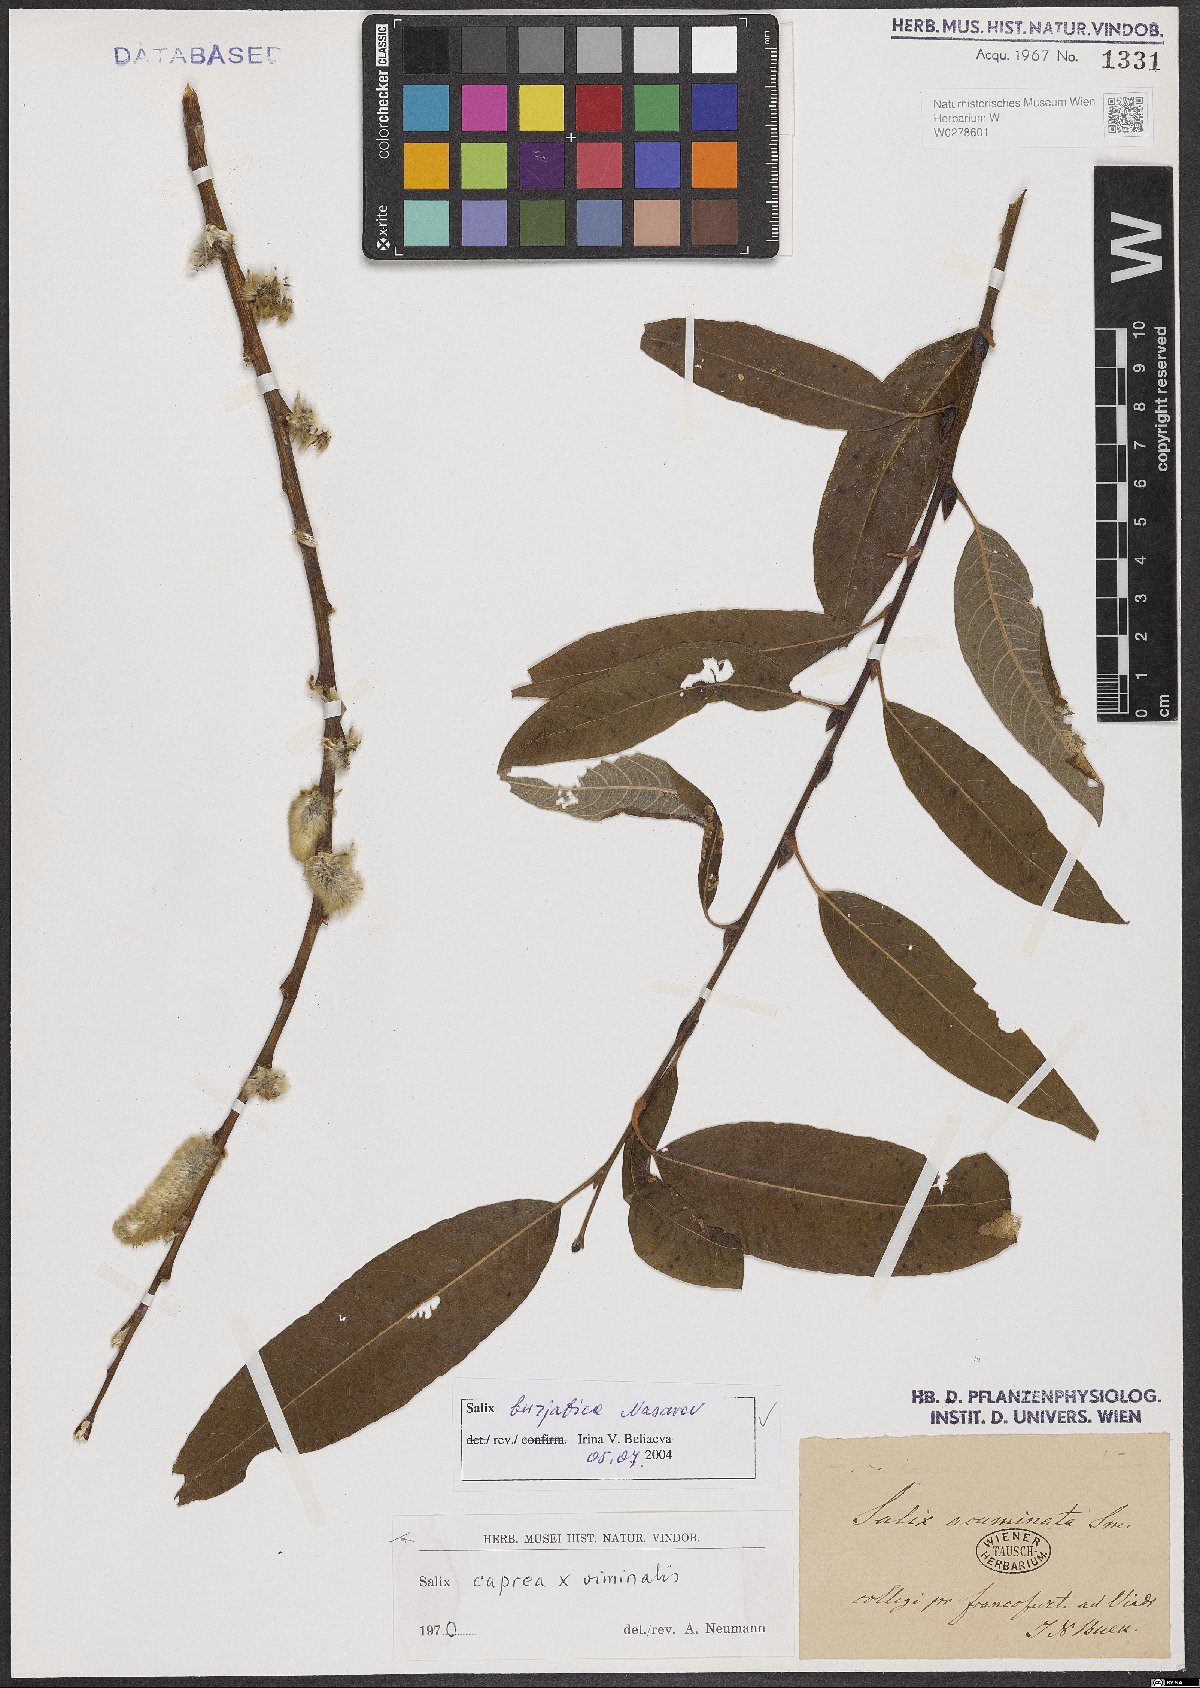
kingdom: Plantae
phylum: Tracheophyta
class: Magnoliopsida
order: Malpighiales
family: Salicaceae
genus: Salix
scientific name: Salix gmelinii
